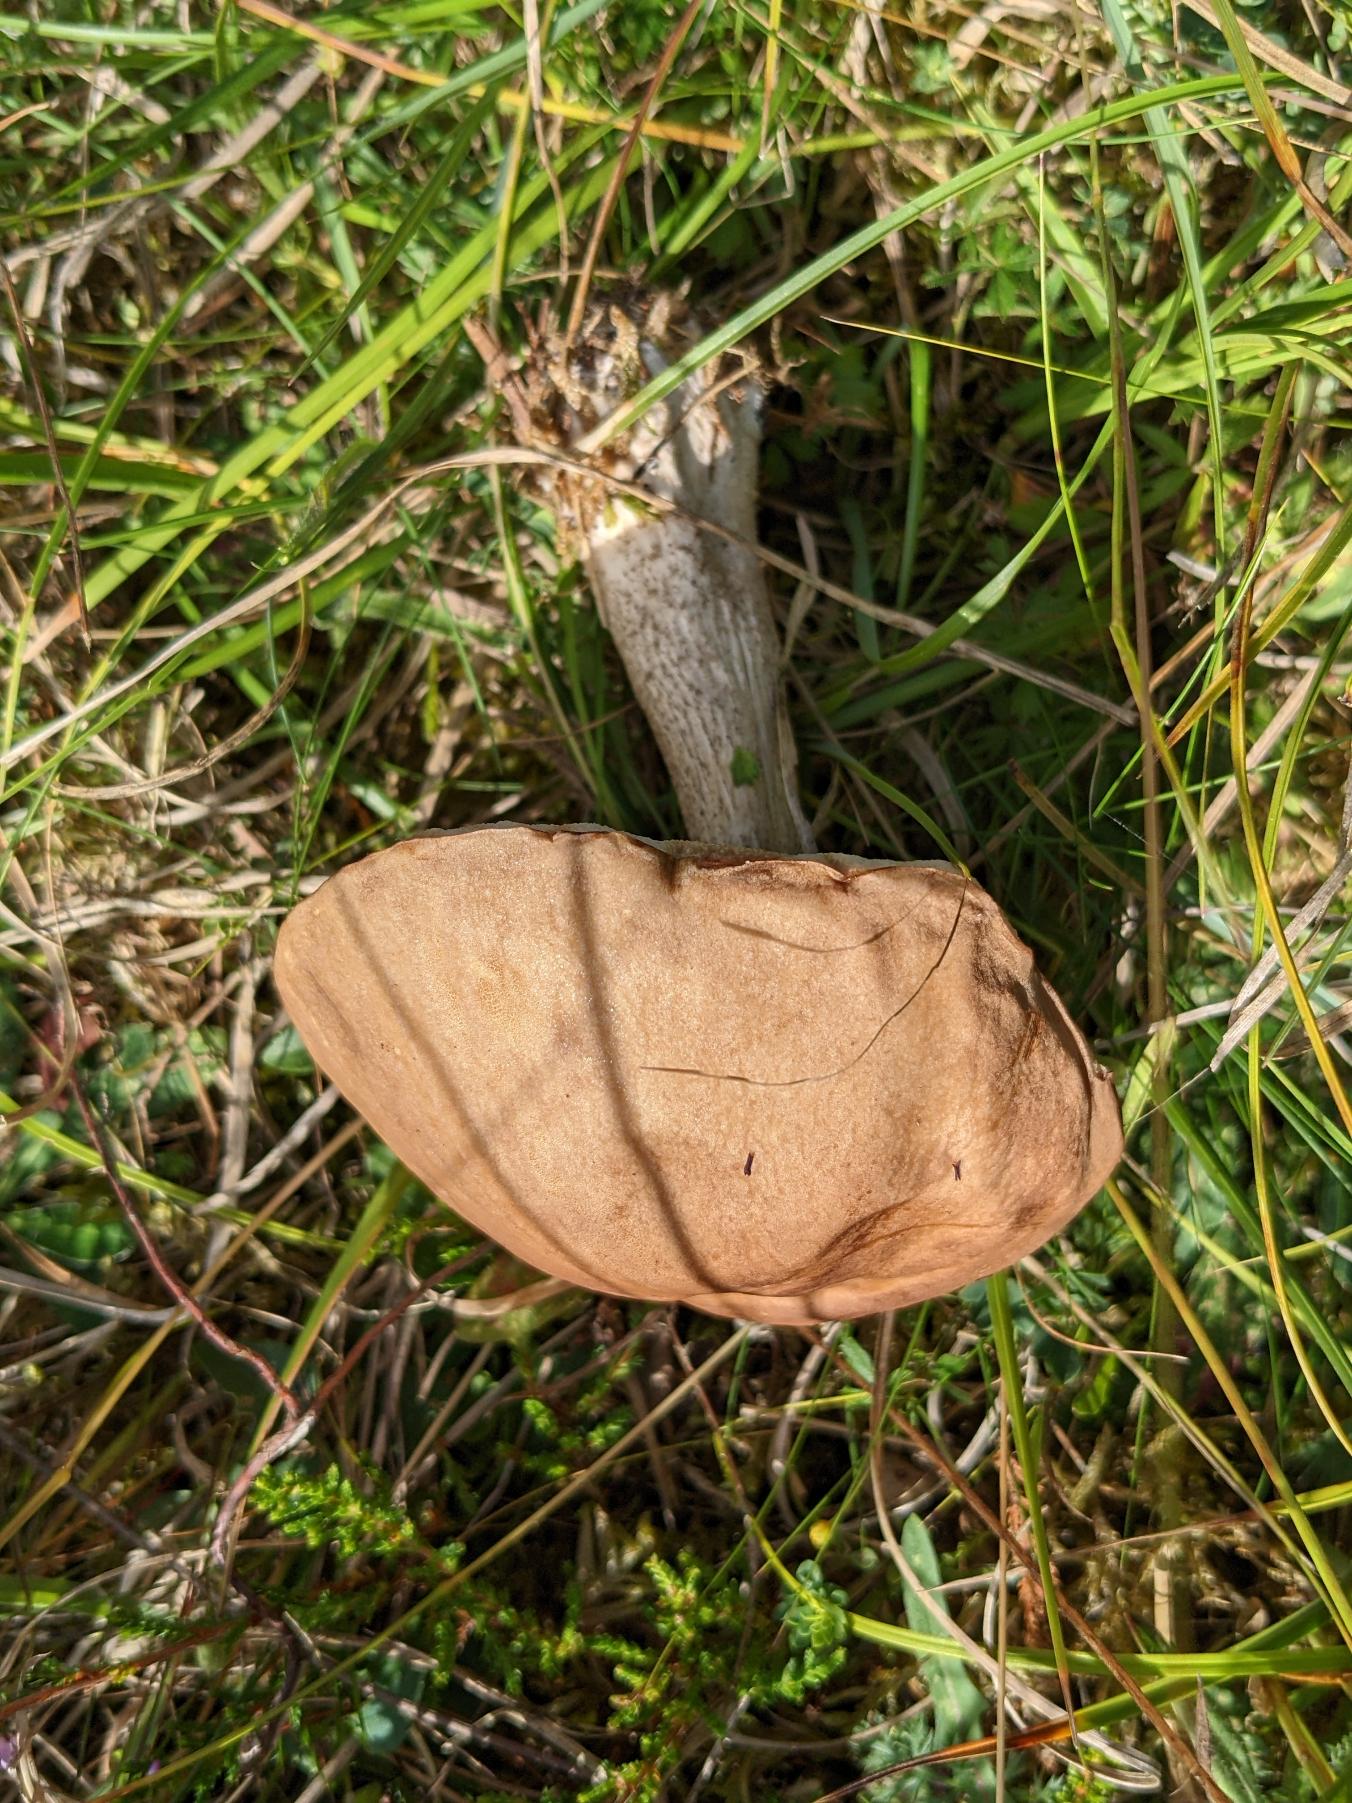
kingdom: Fungi
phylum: Basidiomycota
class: Agaricomycetes
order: Boletales
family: Boletaceae
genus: Leccinum
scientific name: Leccinum scabrum
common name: Brun skælrørhat
